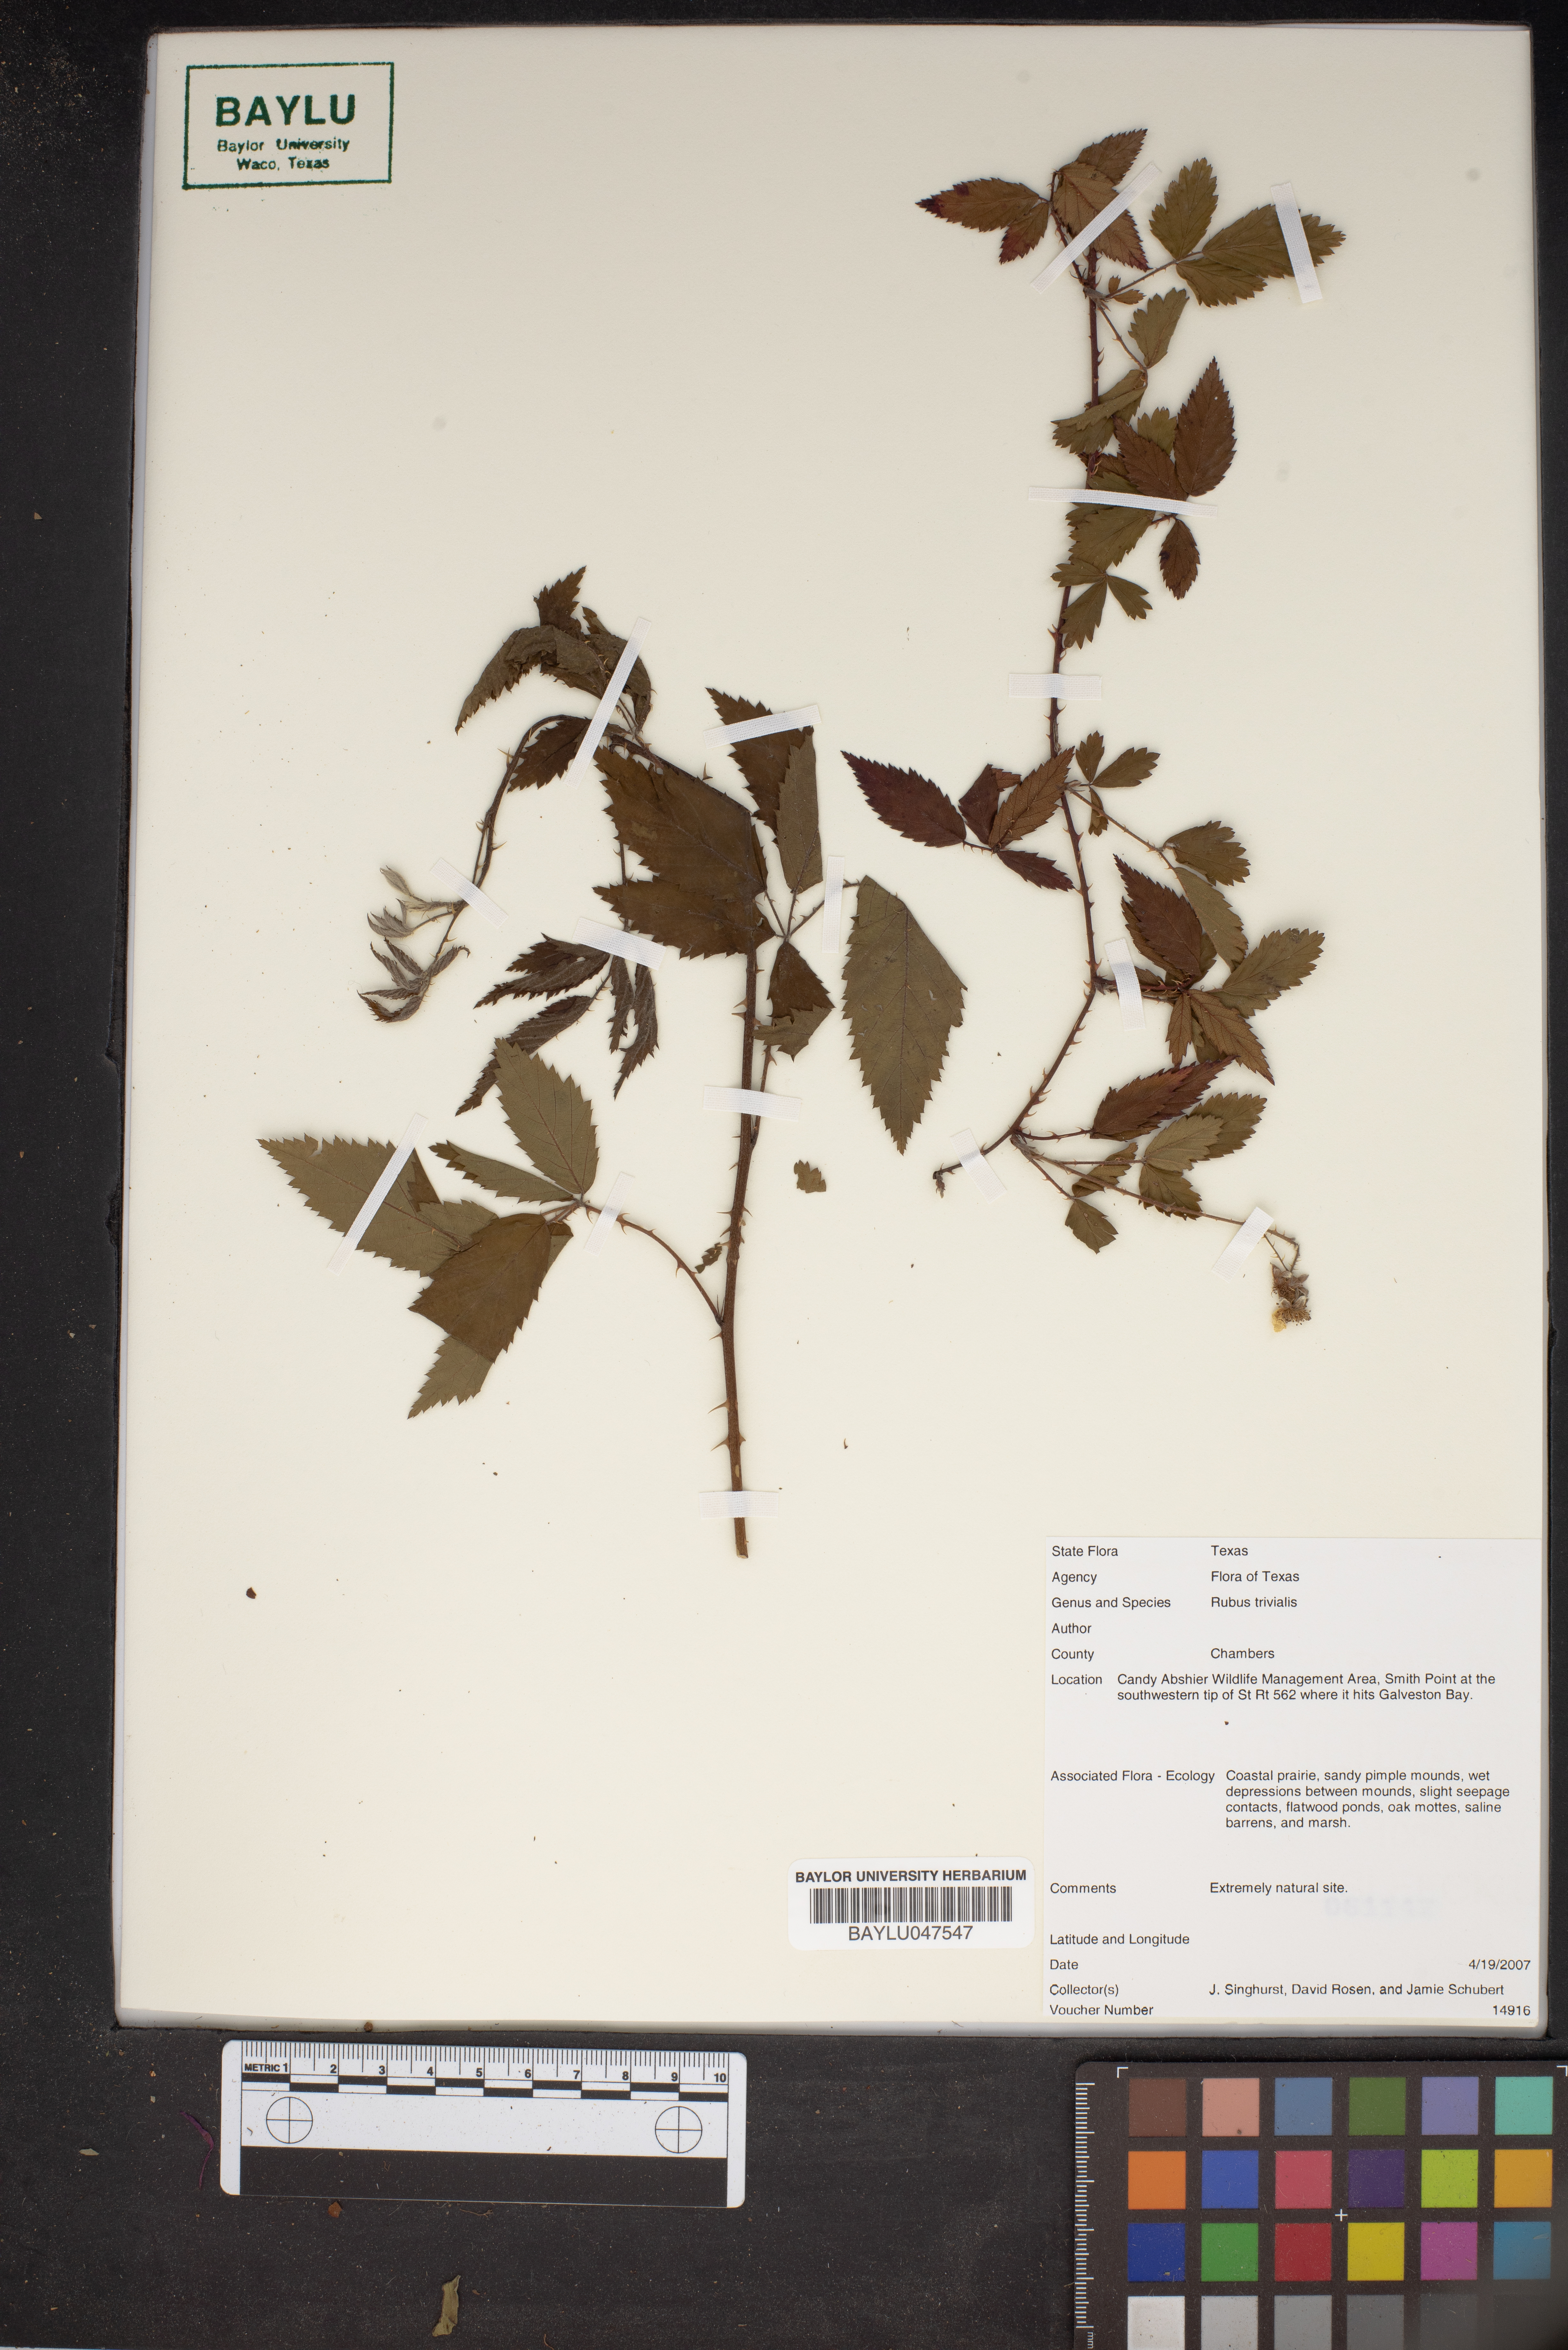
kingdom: Plantae
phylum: Tracheophyta
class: Magnoliopsida
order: Rosales
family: Rosaceae
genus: Rubus
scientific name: Rubus trivialis
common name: Southern dewberry
